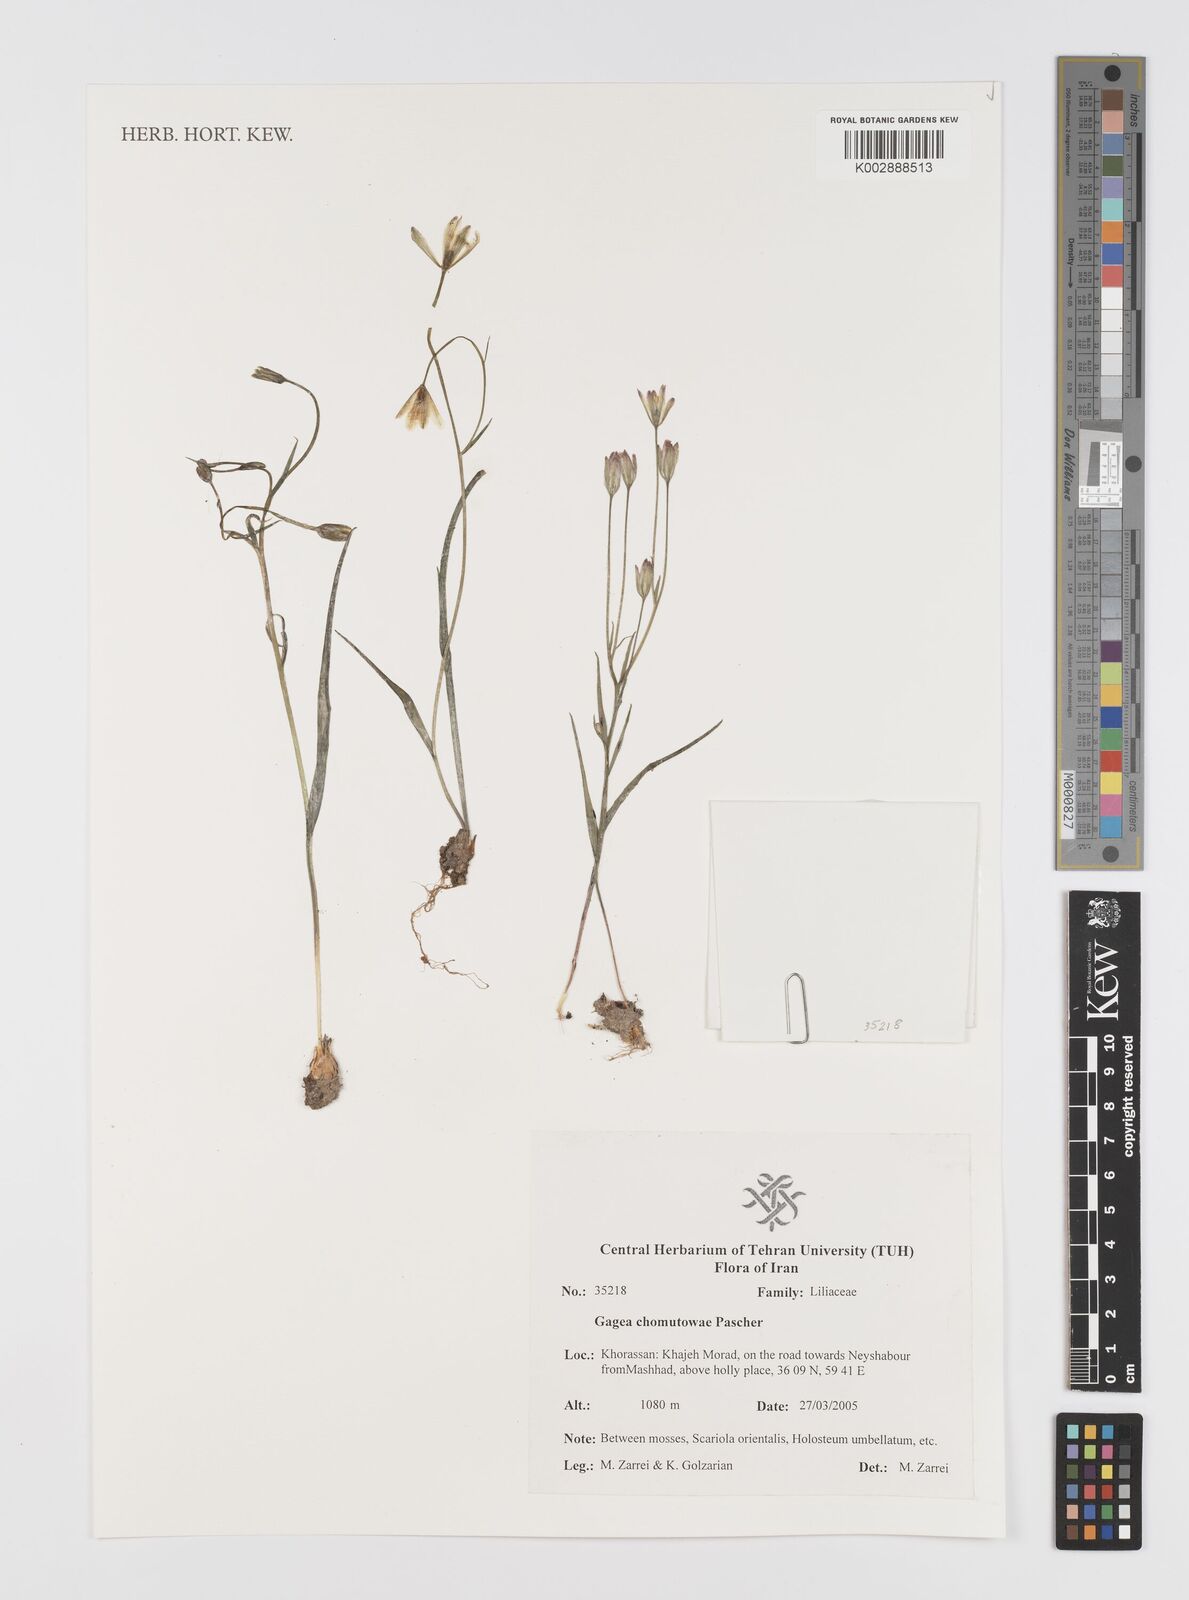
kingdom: Plantae
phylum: Tracheophyta
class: Liliopsida
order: Liliales
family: Liliaceae
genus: Gagea
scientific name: Gagea chomutovae
